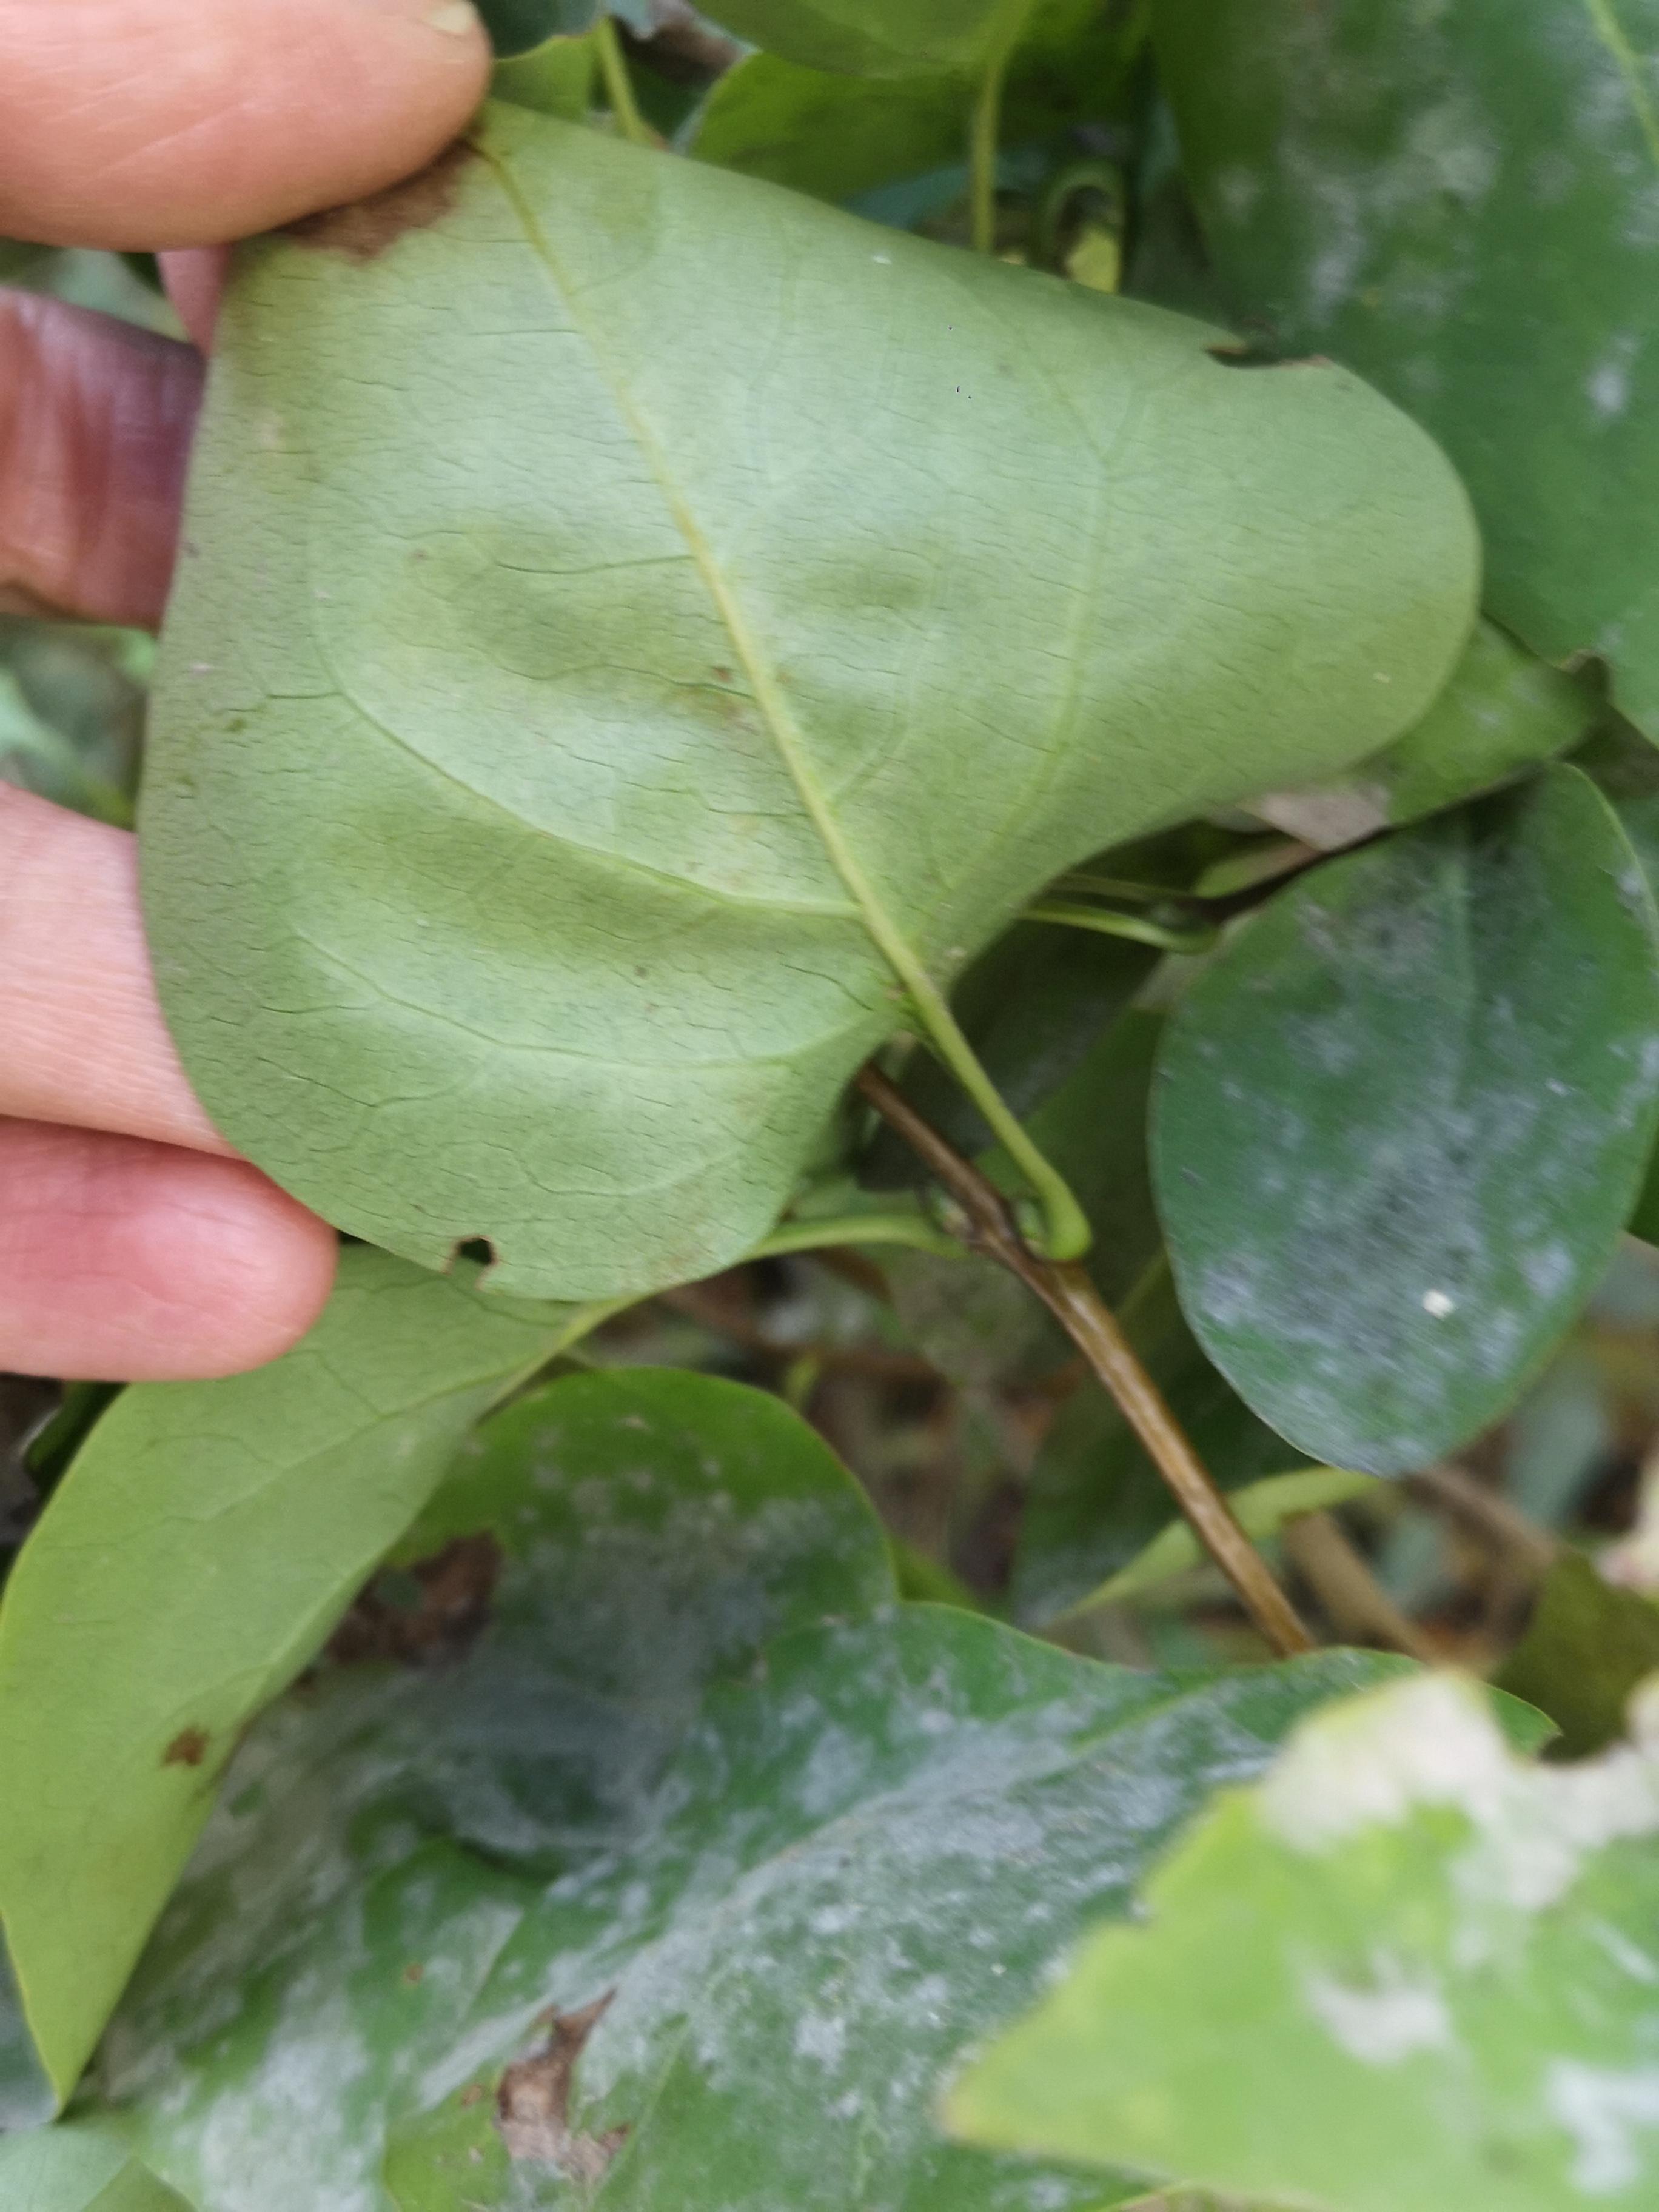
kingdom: Fungi
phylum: Ascomycota
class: Leotiomycetes
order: Helotiales
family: Erysiphaceae
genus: Erysiphe
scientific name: Erysiphe syringae-japonicae
